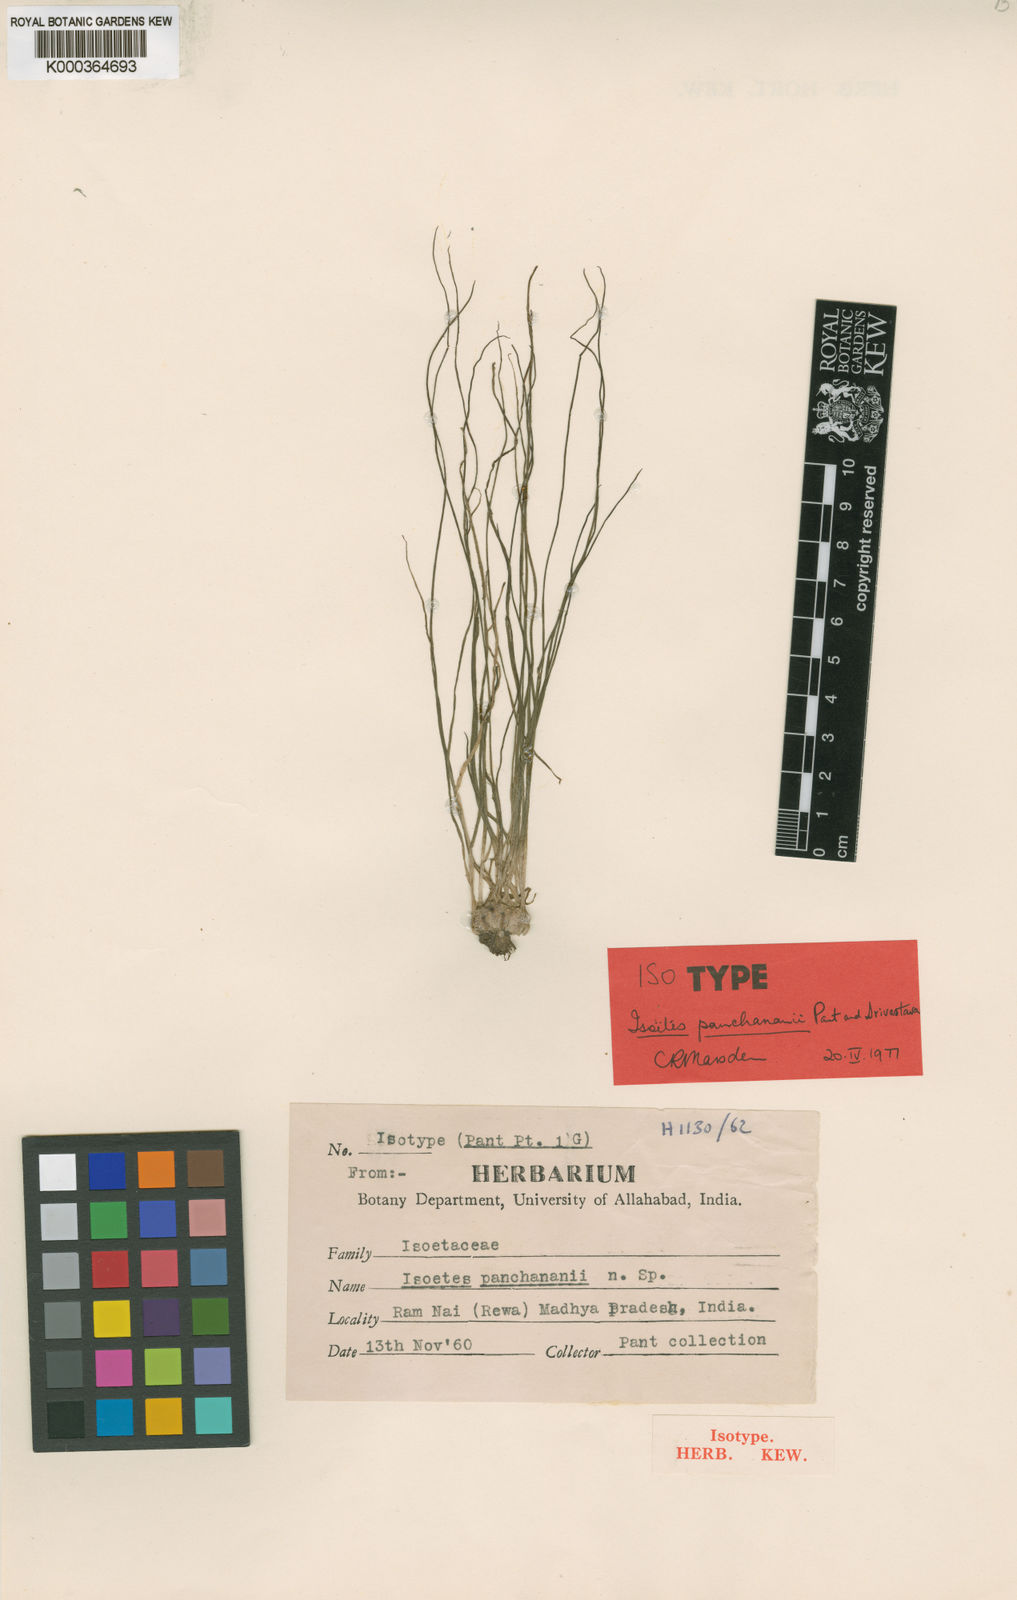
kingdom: Plantae
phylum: Tracheophyta
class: Lycopodiopsida
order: Isoetales
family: Isoetaceae
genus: Isoetes
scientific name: Isoetes sahyadrii
